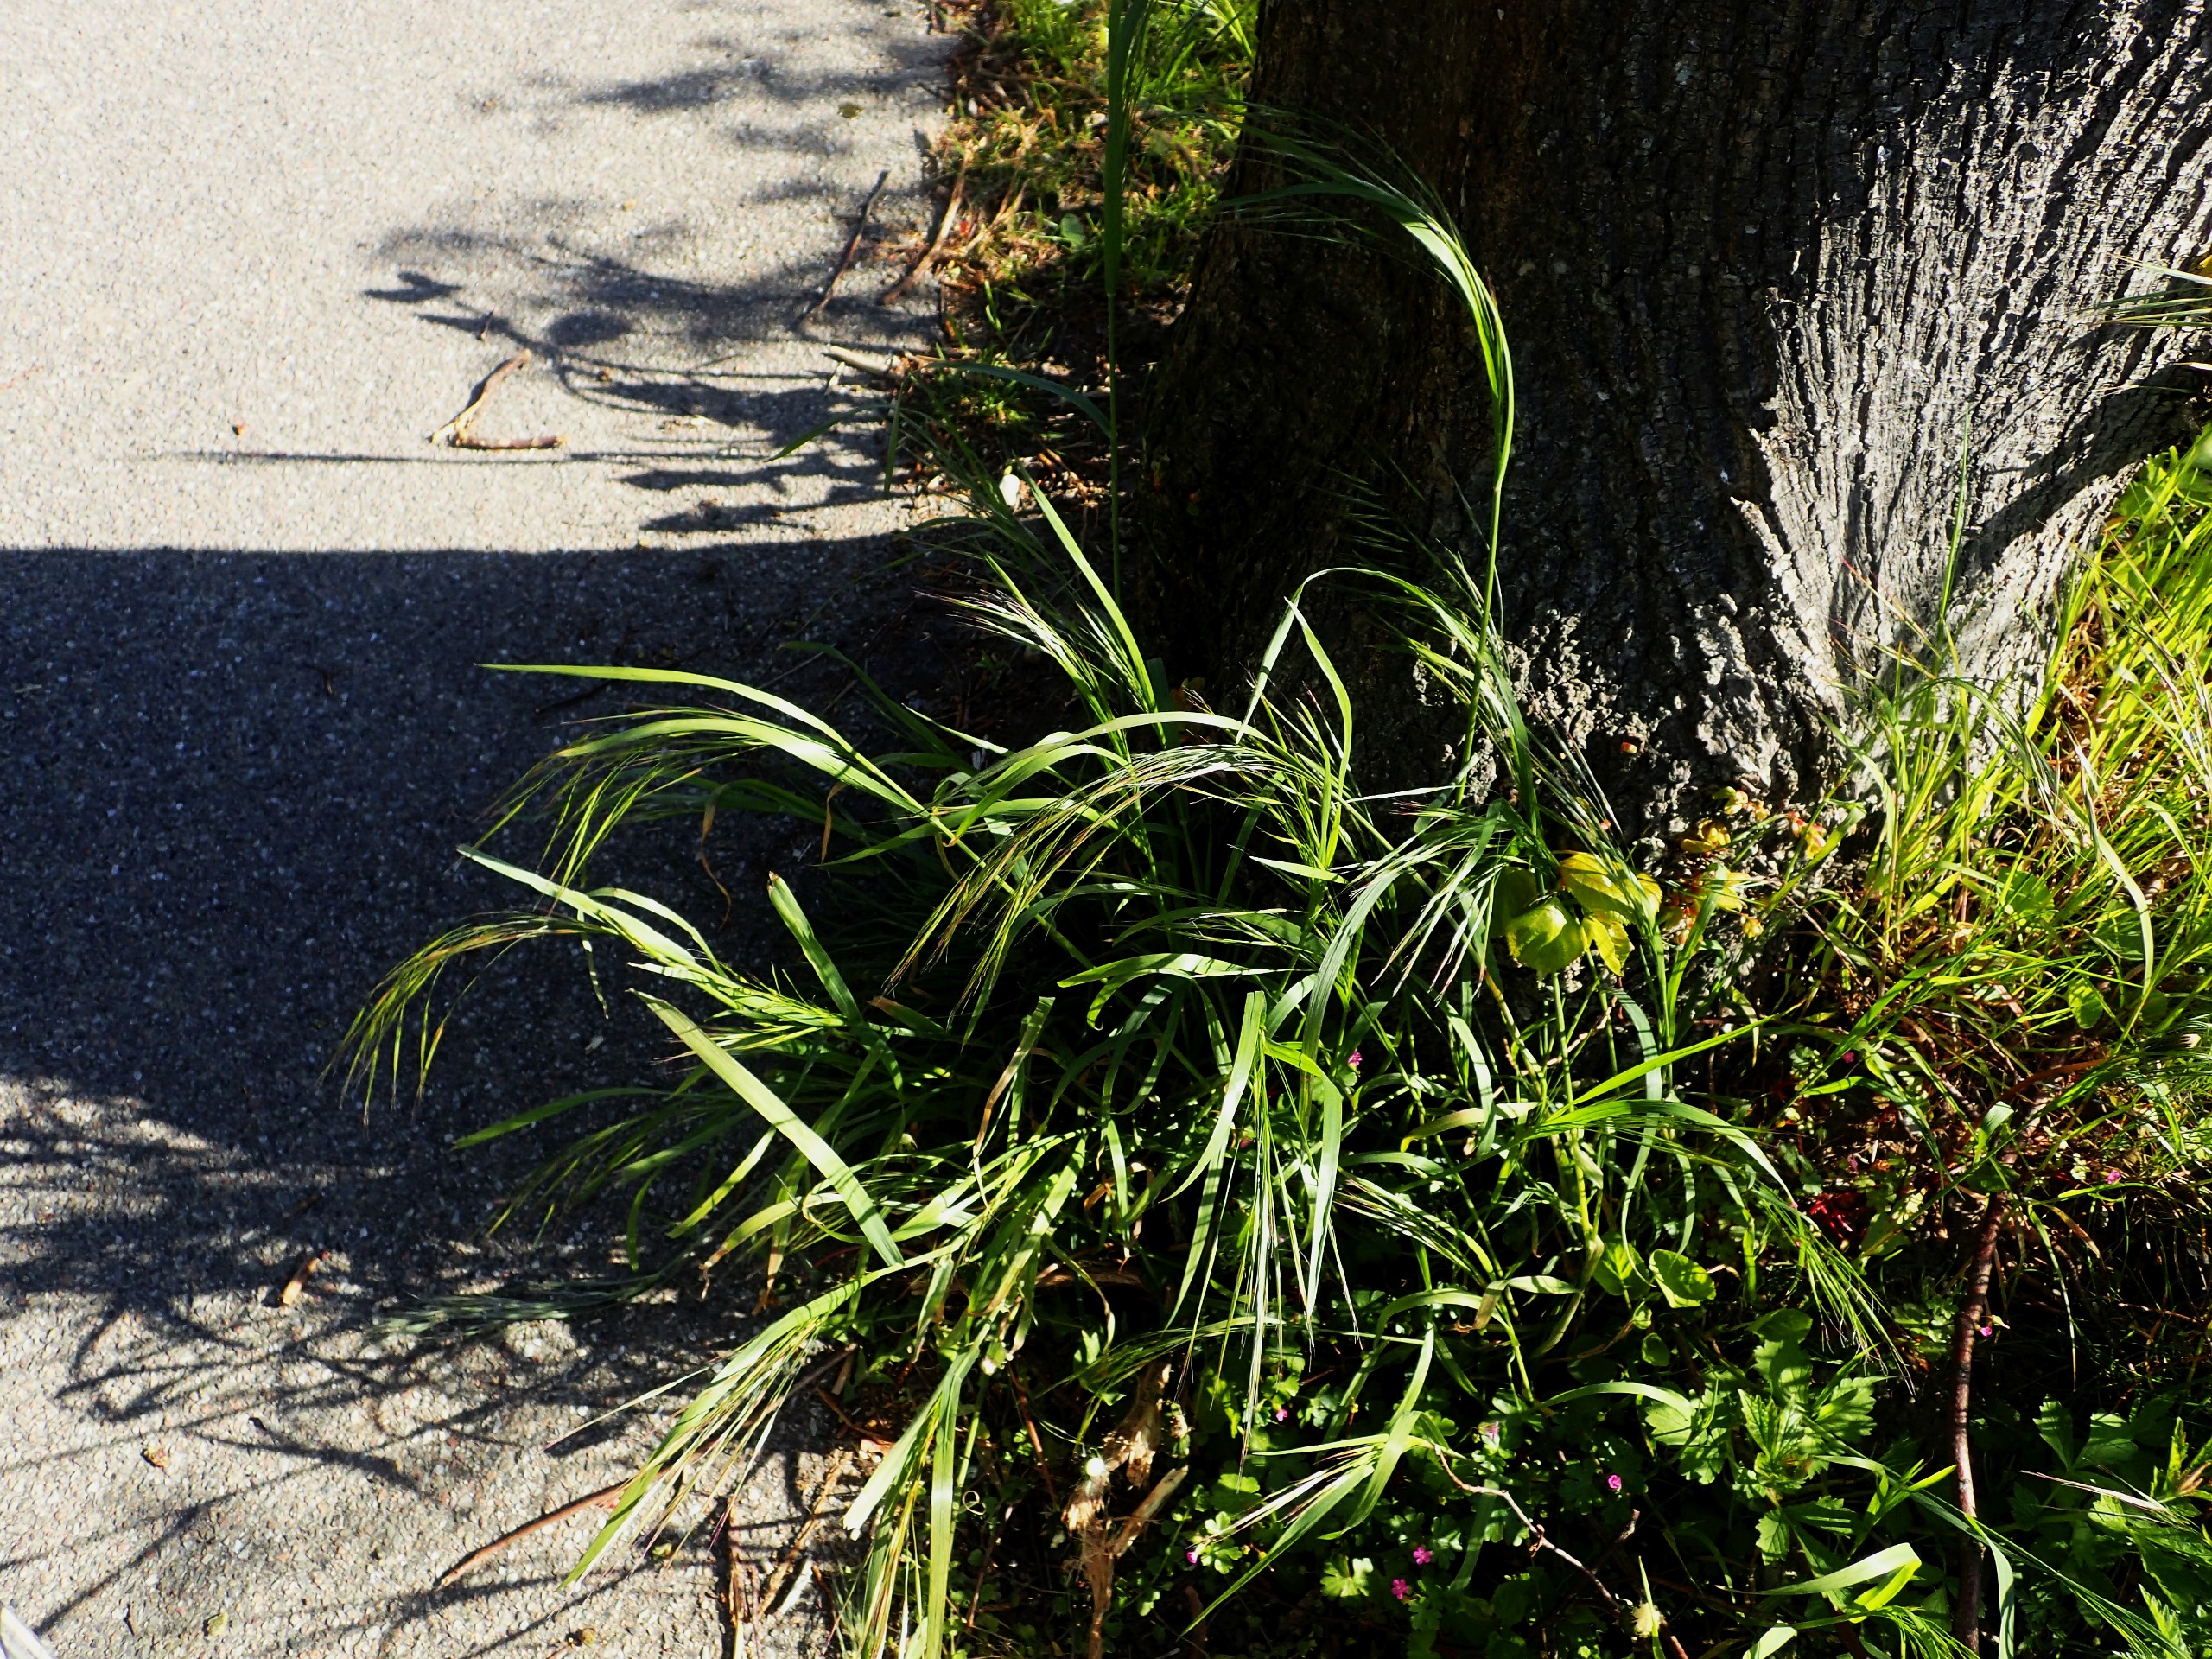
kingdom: Plantae
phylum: Tracheophyta
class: Liliopsida
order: Poales
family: Poaceae
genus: Bromus
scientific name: Bromus sterilis
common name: Gold hejre
